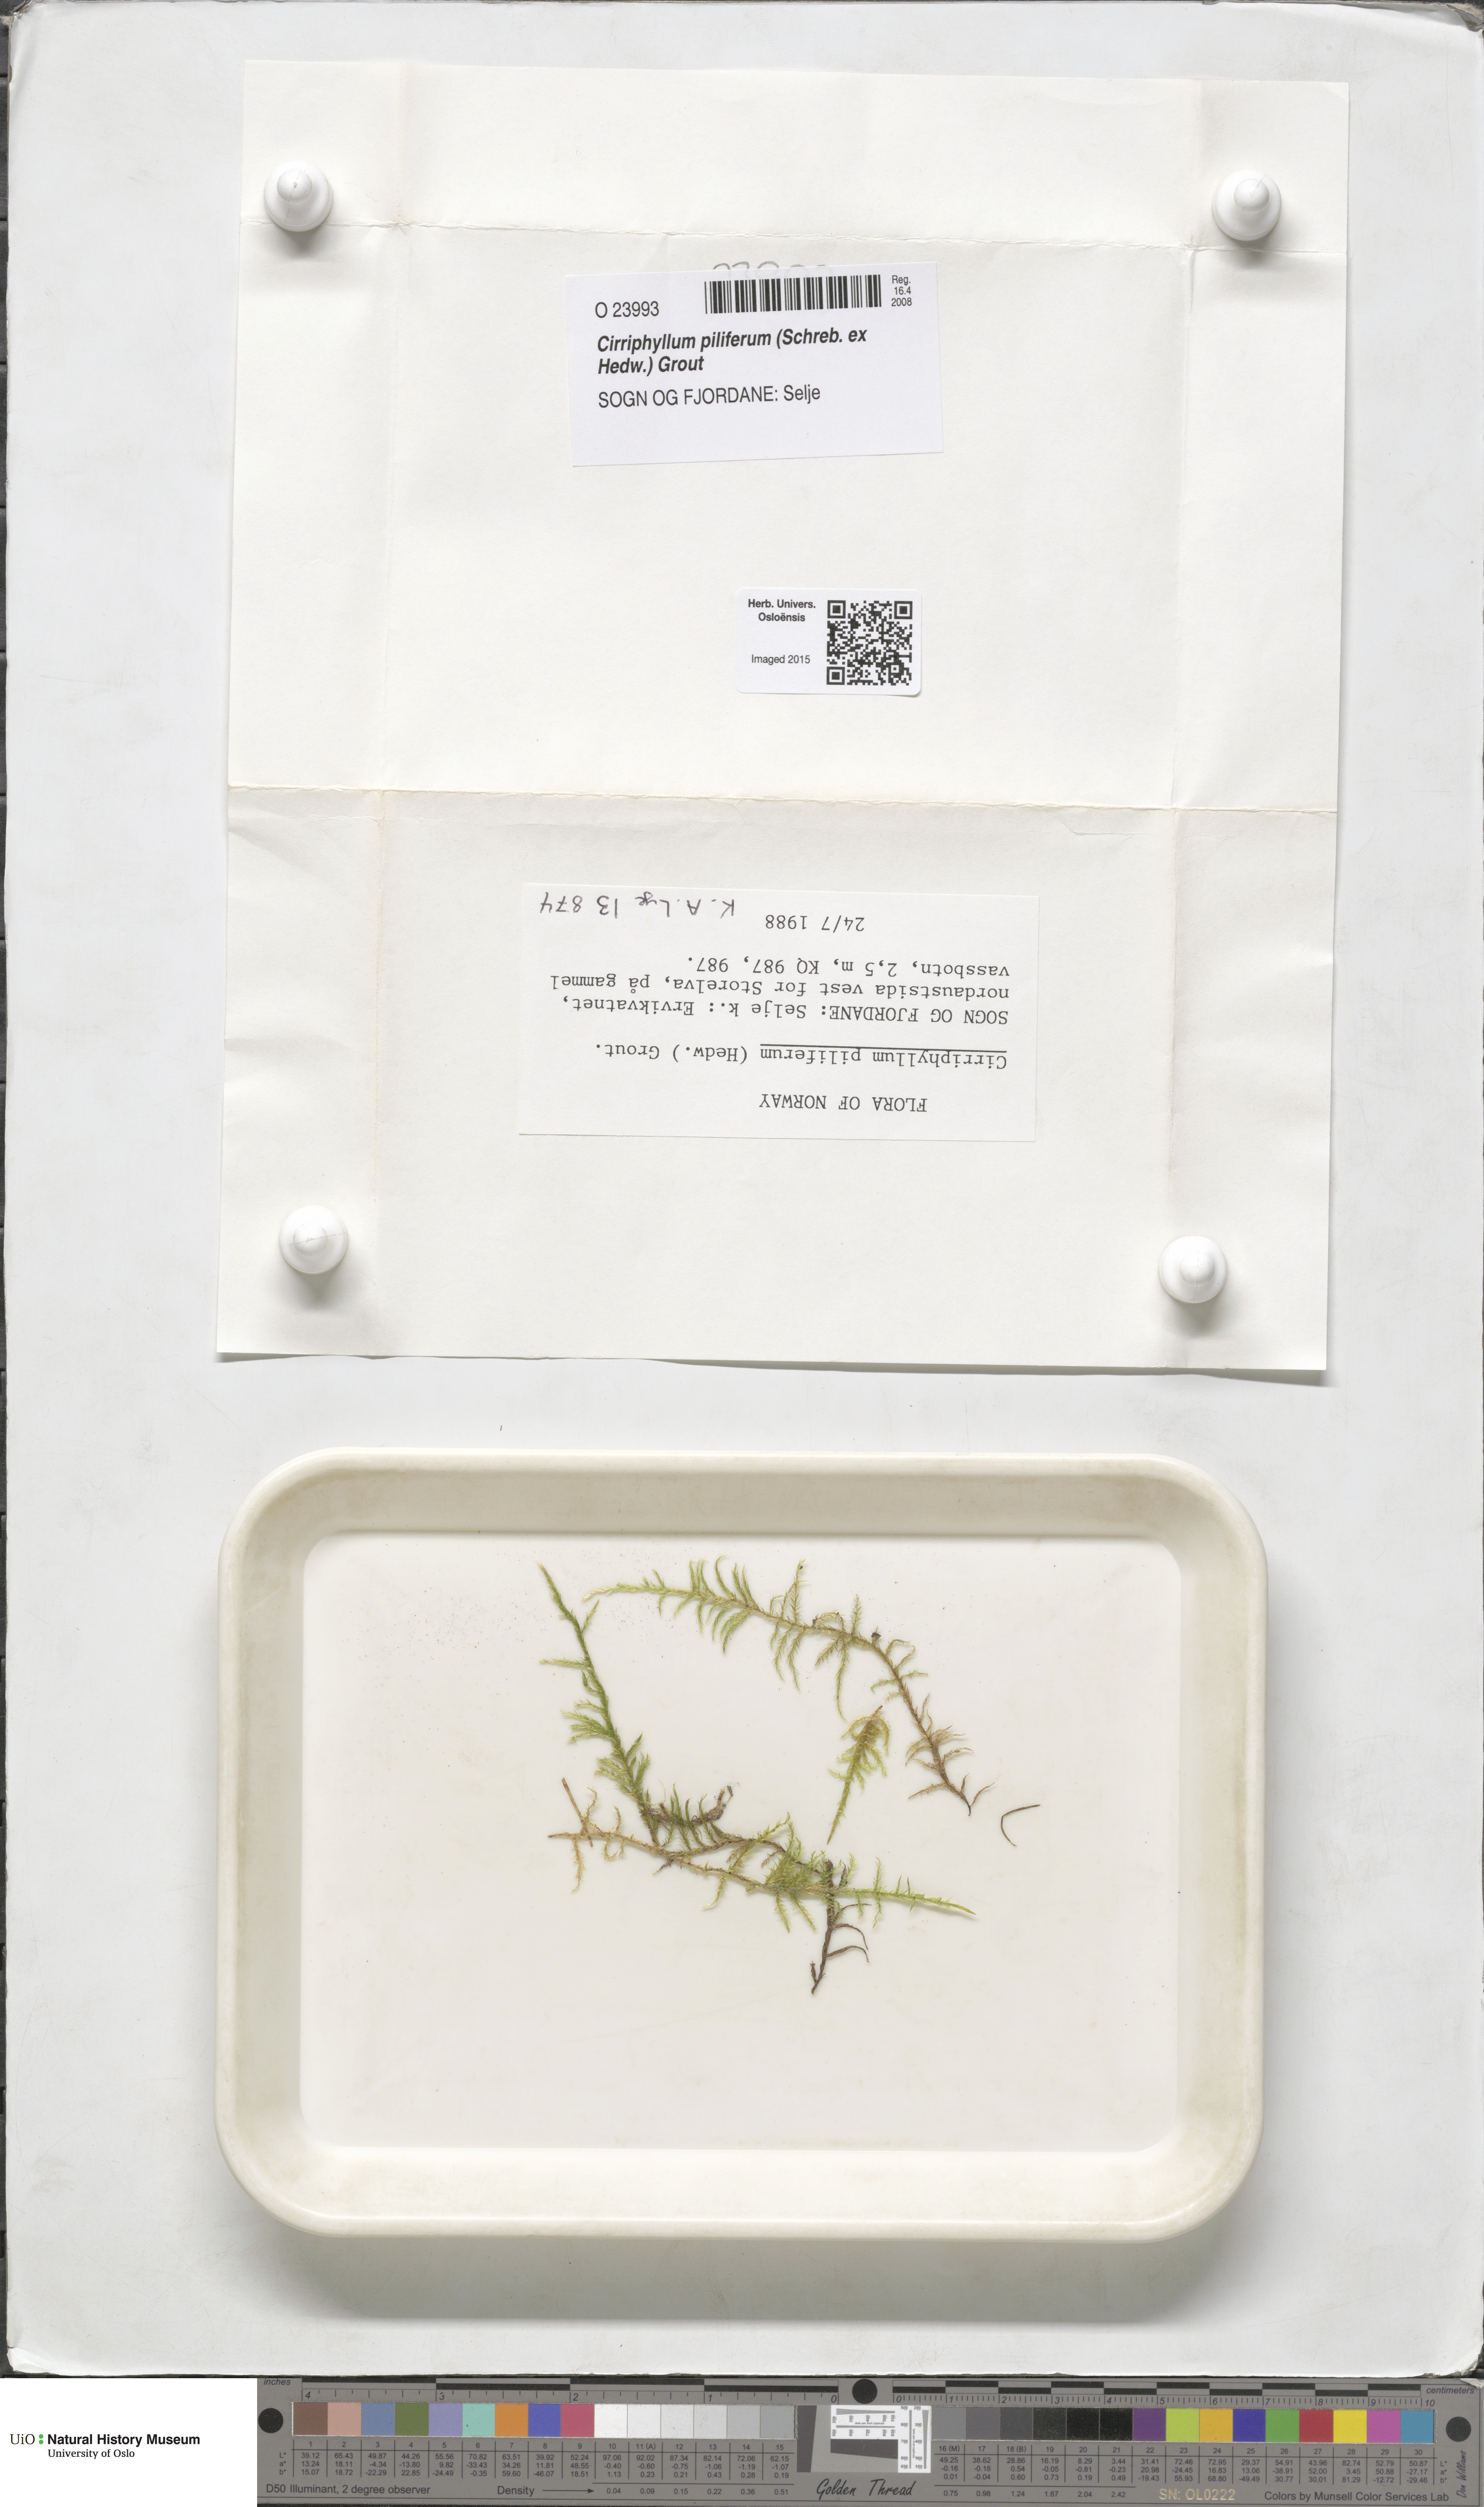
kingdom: Plantae
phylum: Bryophyta
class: Bryopsida
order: Hypnales
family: Brachytheciaceae
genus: Cirriphyllum
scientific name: Cirriphyllum piliferum
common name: Hair-pointed moss
